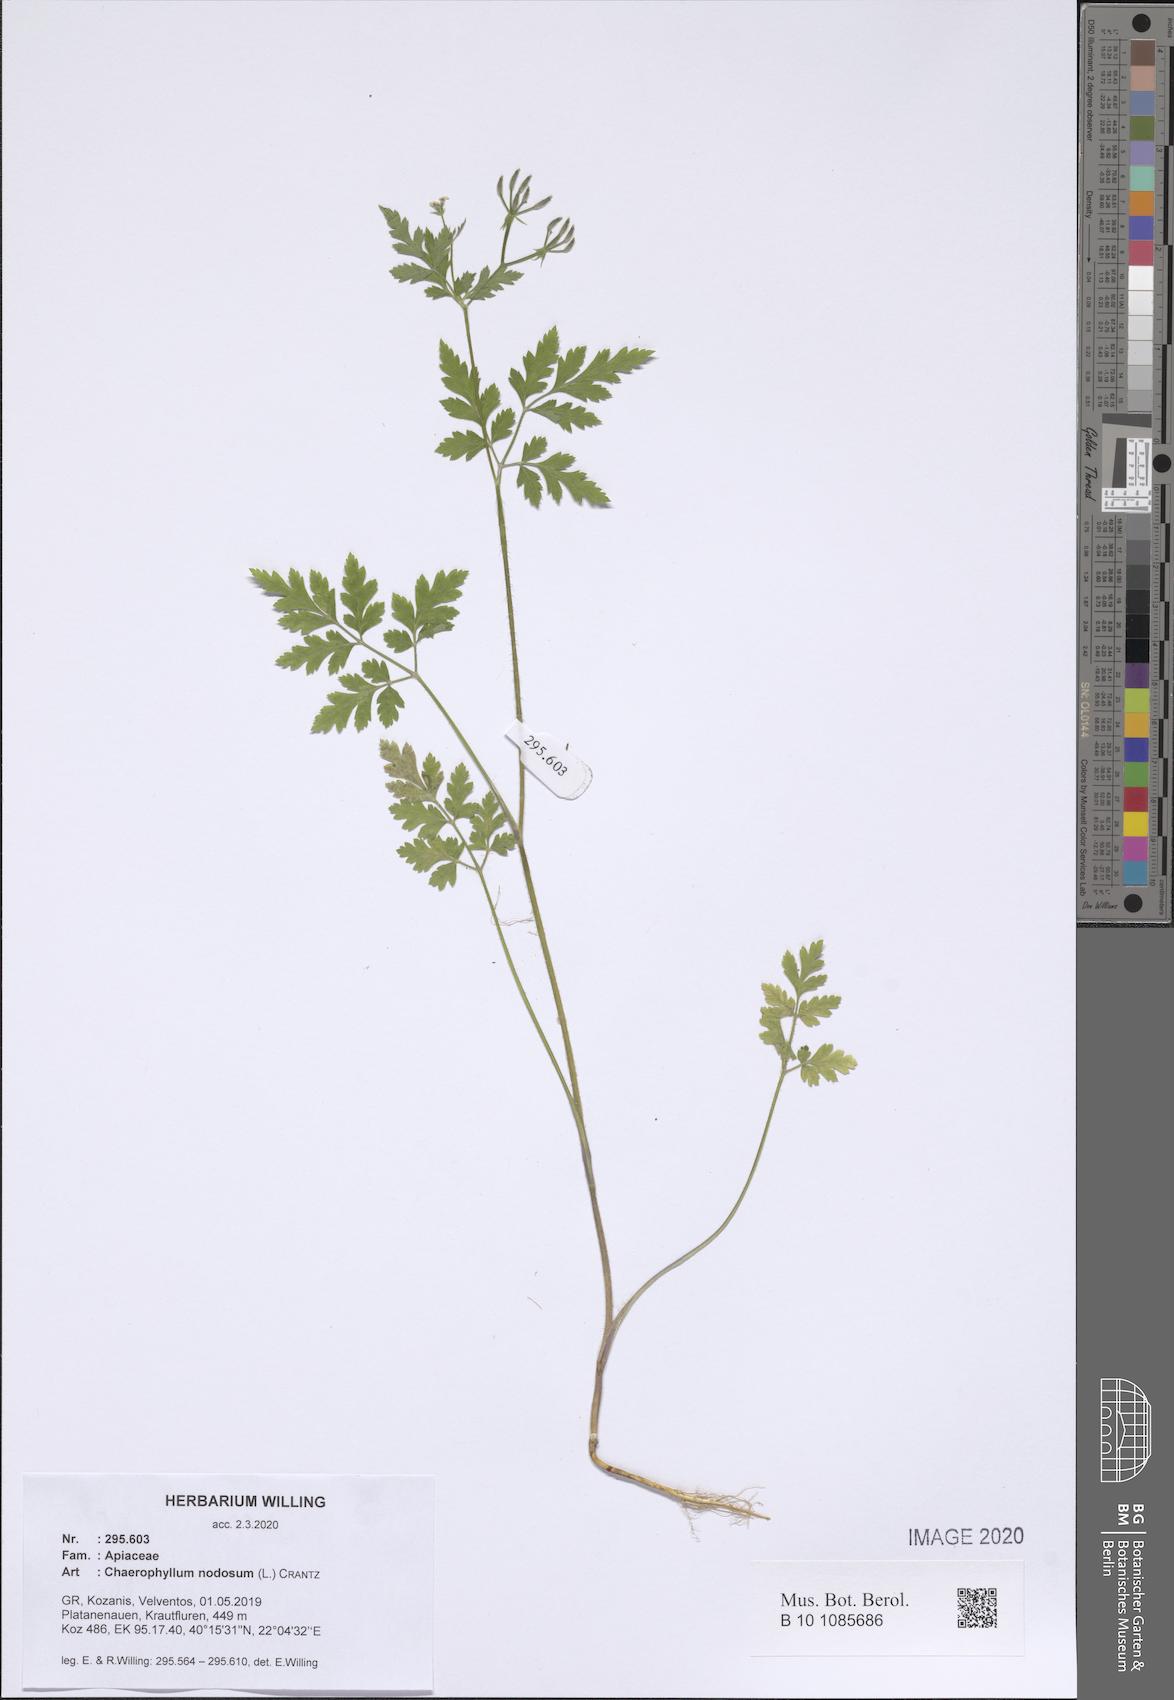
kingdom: Plantae
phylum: Tracheophyta
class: Magnoliopsida
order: Apiales
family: Apiaceae
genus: Chaerophyllum
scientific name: Chaerophyllum nodosum
